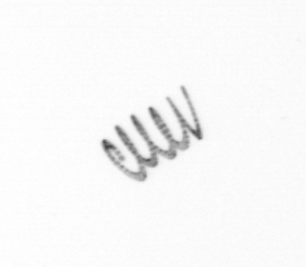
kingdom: Chromista
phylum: Ochrophyta
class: Bacillariophyceae
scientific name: Bacillariophyceae
